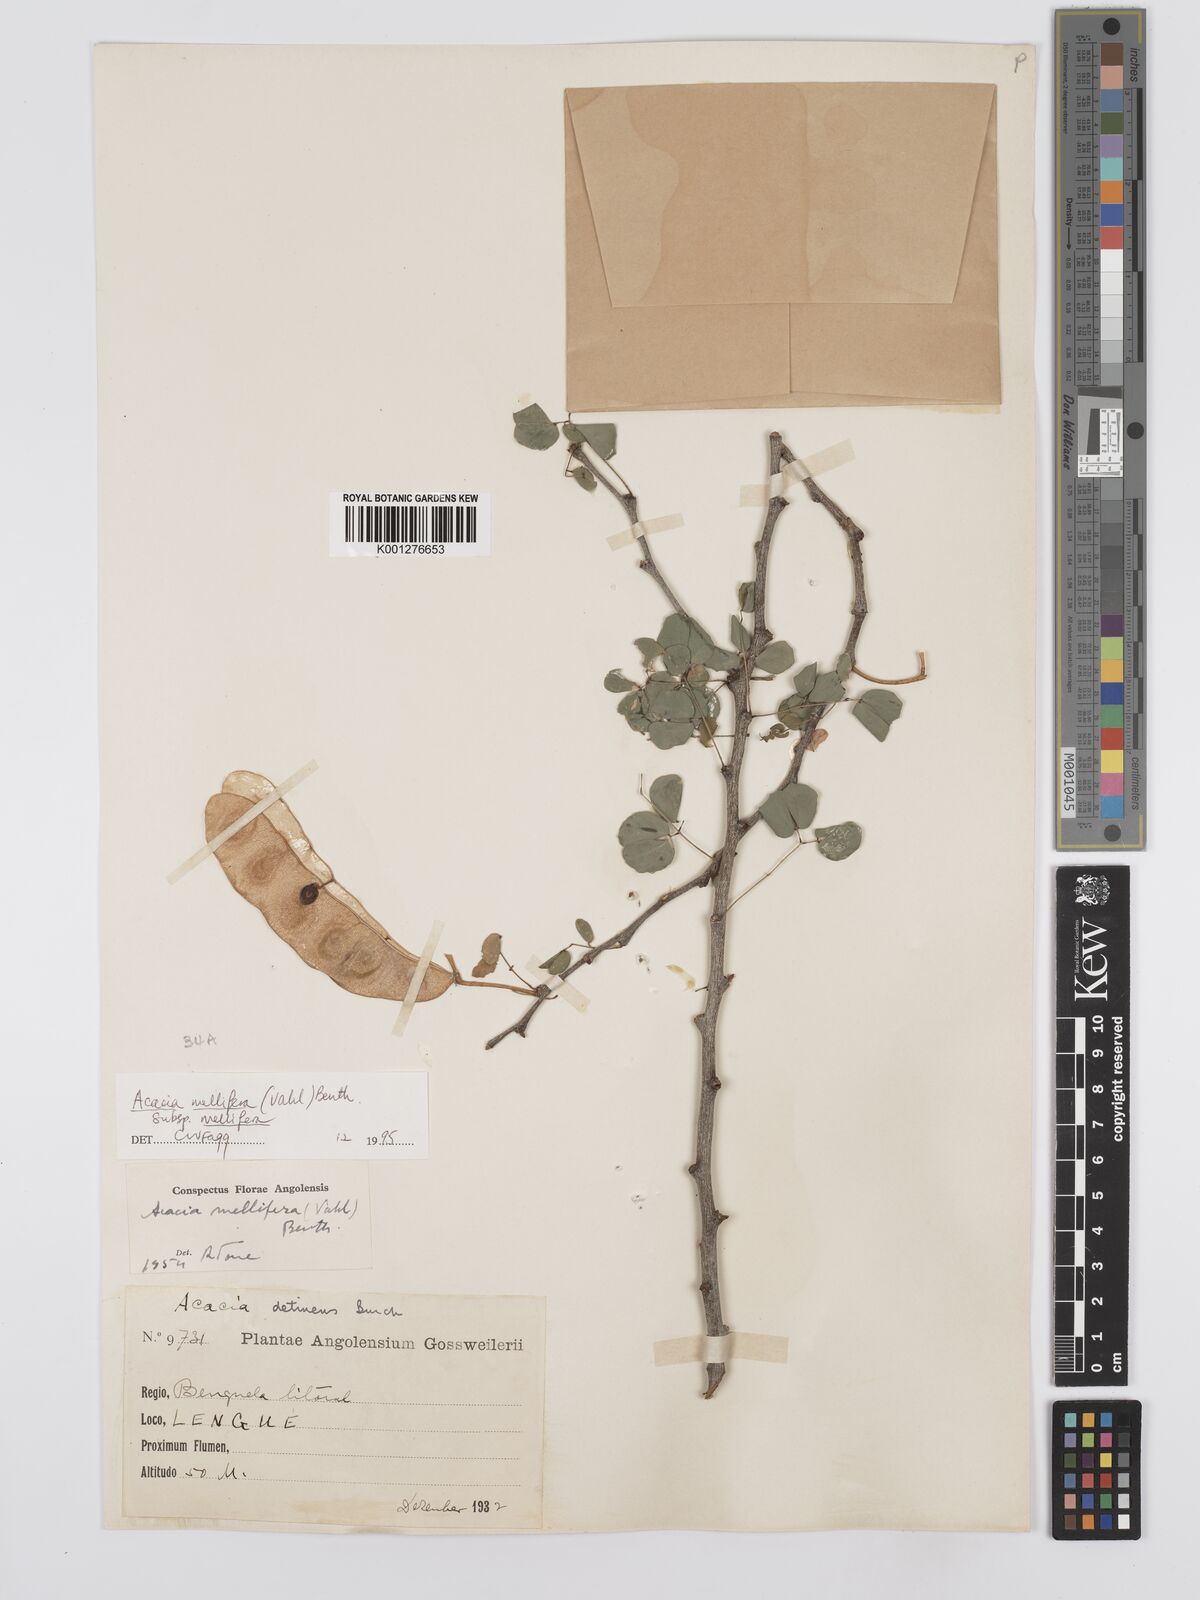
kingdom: Plantae
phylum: Tracheophyta
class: Magnoliopsida
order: Fabales
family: Fabaceae
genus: Senegalia
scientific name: Senegalia mellifera
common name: Hookthorn
